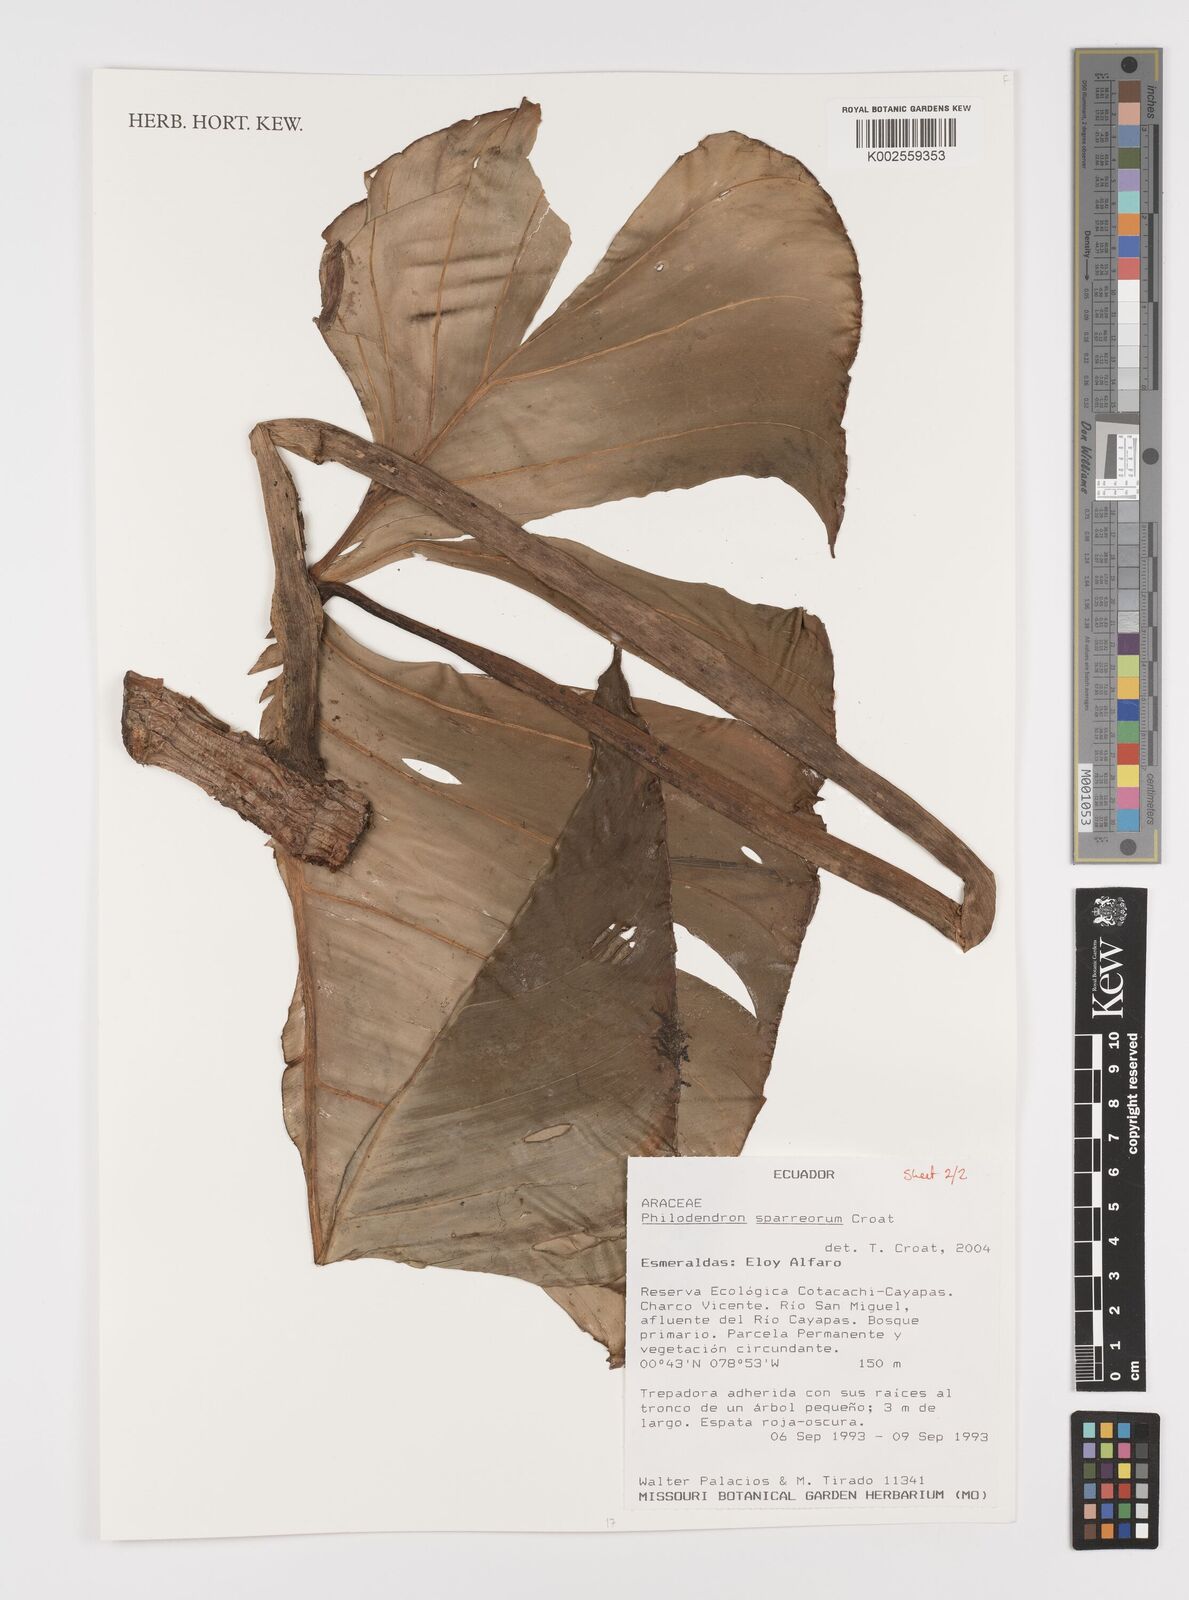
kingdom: Plantae
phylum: Tracheophyta
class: Liliopsida
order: Alismatales
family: Araceae
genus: Philodendron
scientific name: Philodendron sparreorum
